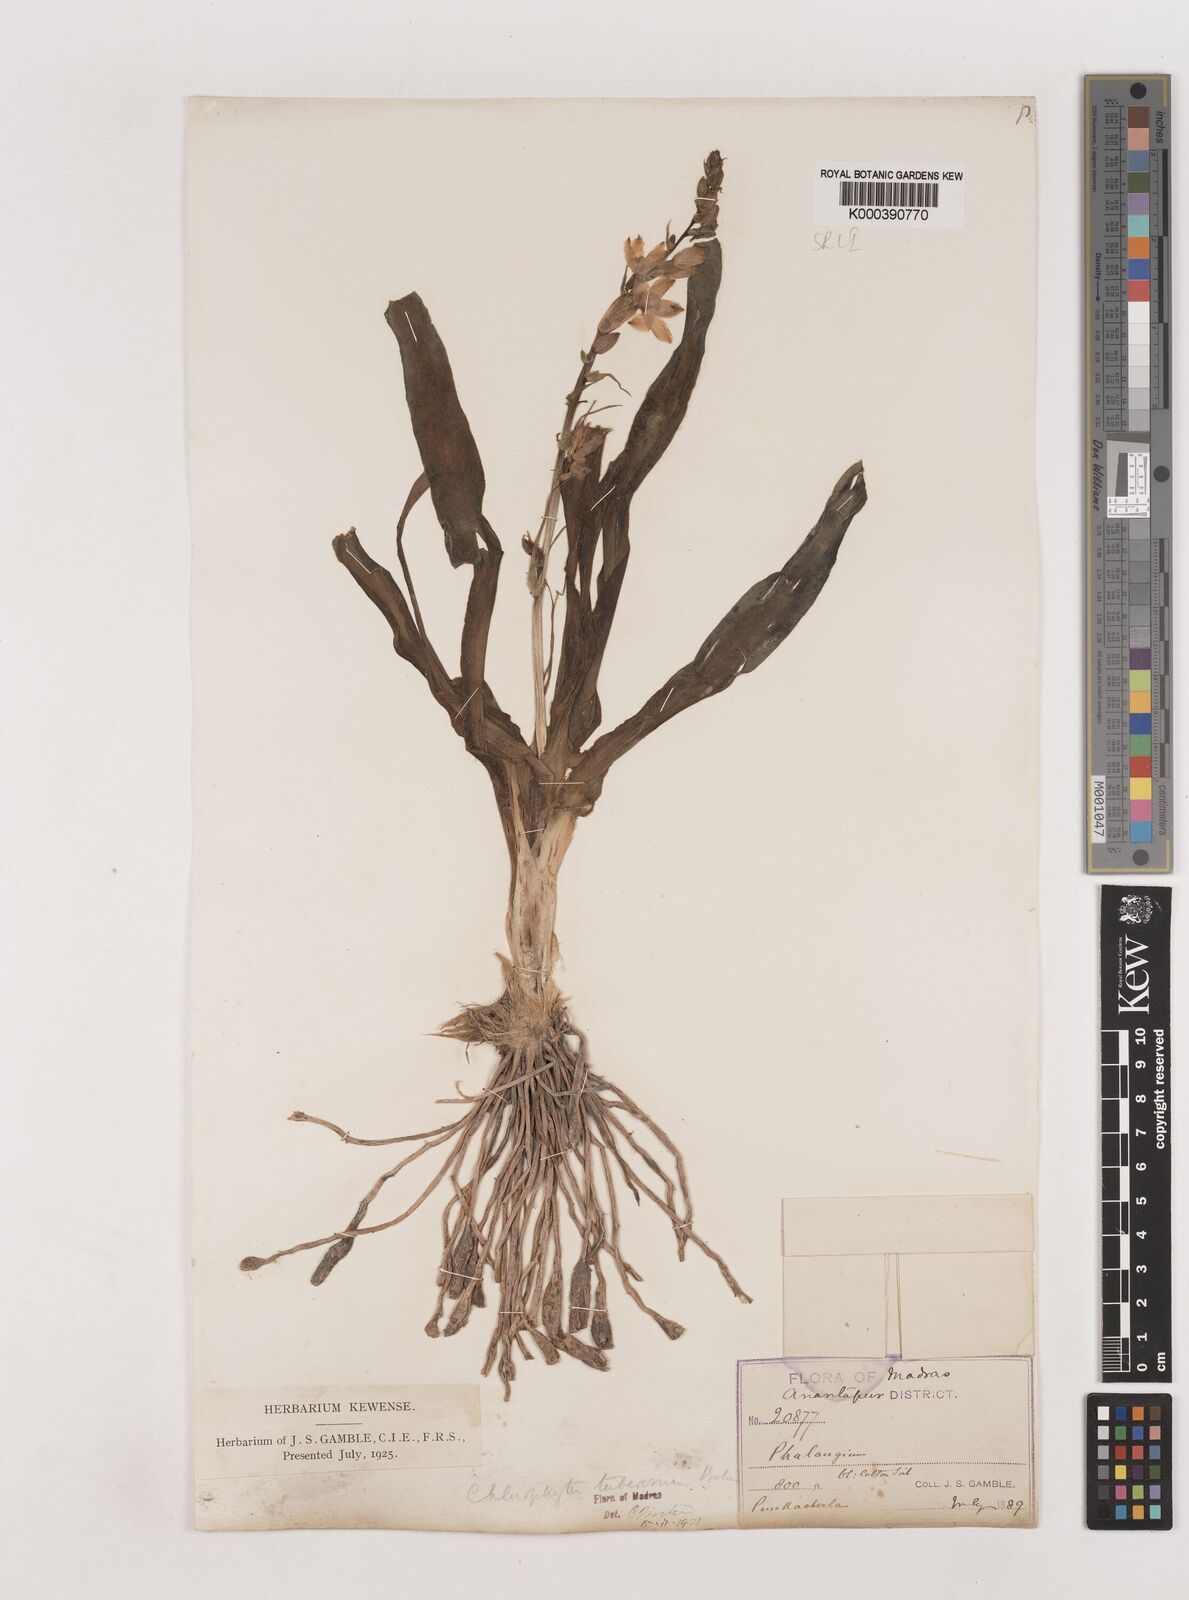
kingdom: Plantae
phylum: Tracheophyta
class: Liliopsida
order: Asparagales
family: Asparagaceae
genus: Chlorophytum
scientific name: Chlorophytum tuberosum
